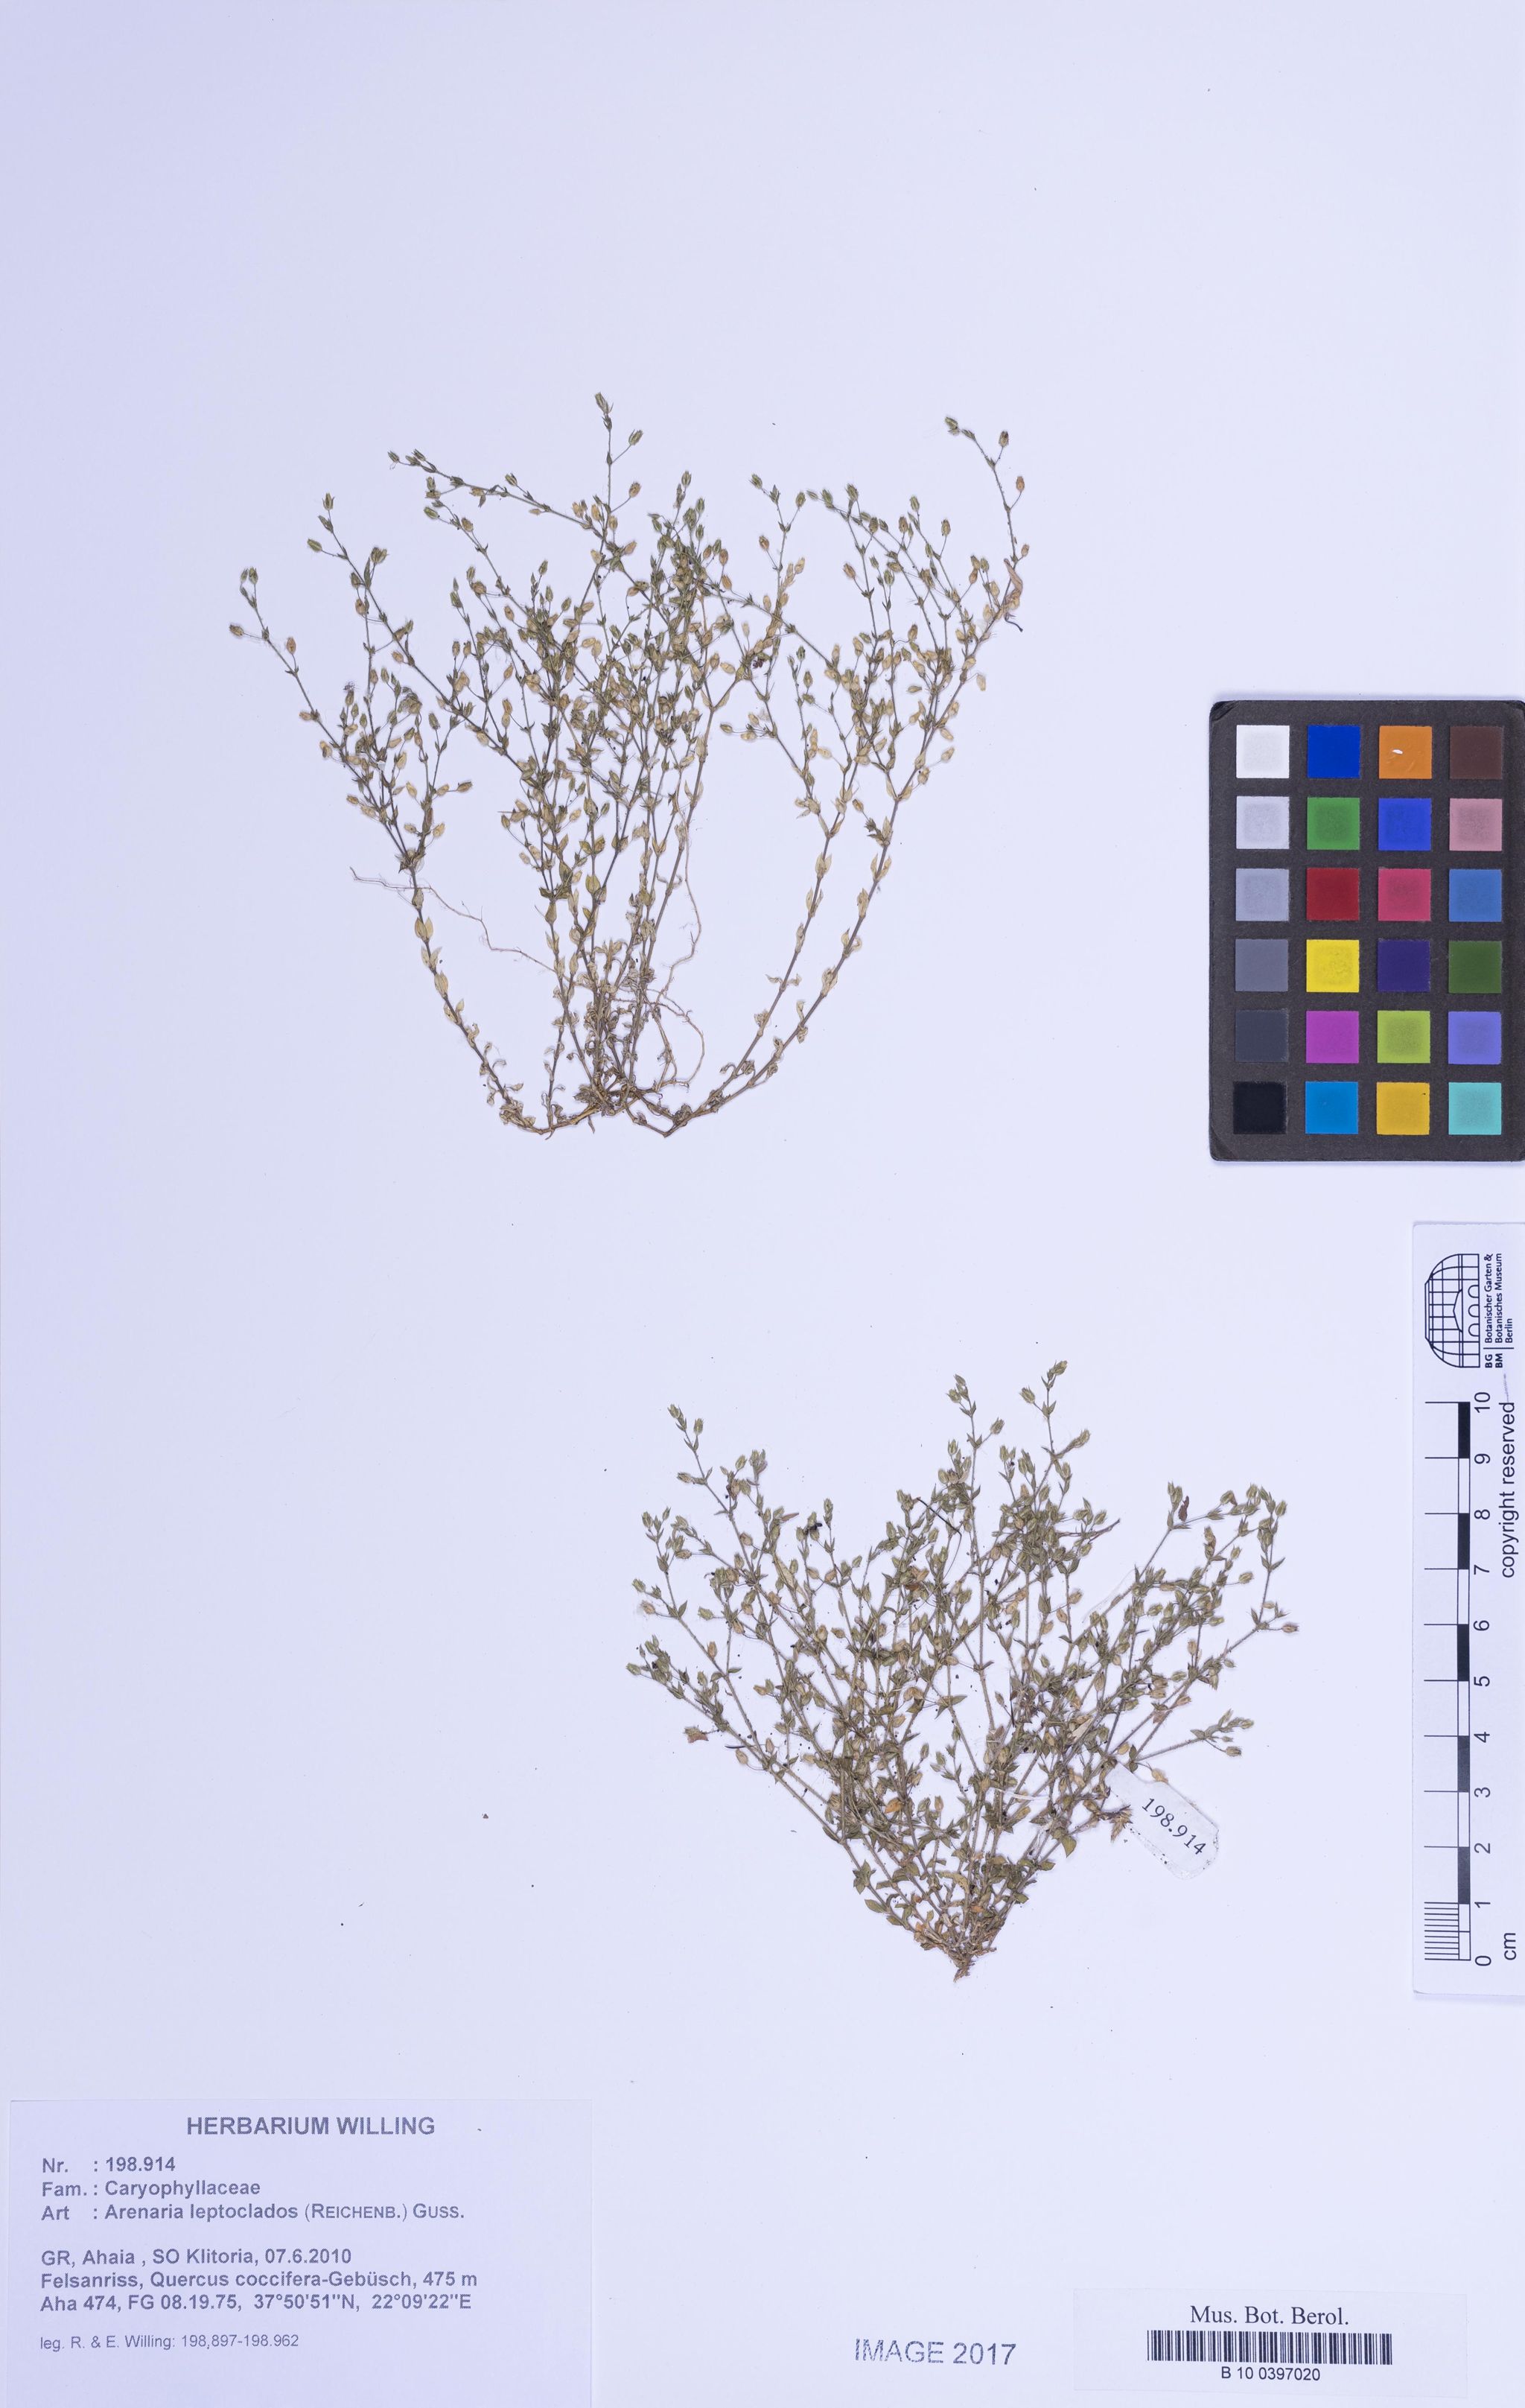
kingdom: Plantae
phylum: Tracheophyta
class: Magnoliopsida
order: Caryophyllales
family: Caryophyllaceae
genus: Arenaria
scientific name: Arenaria leptoclados
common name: Thyme-leaved sandwort
